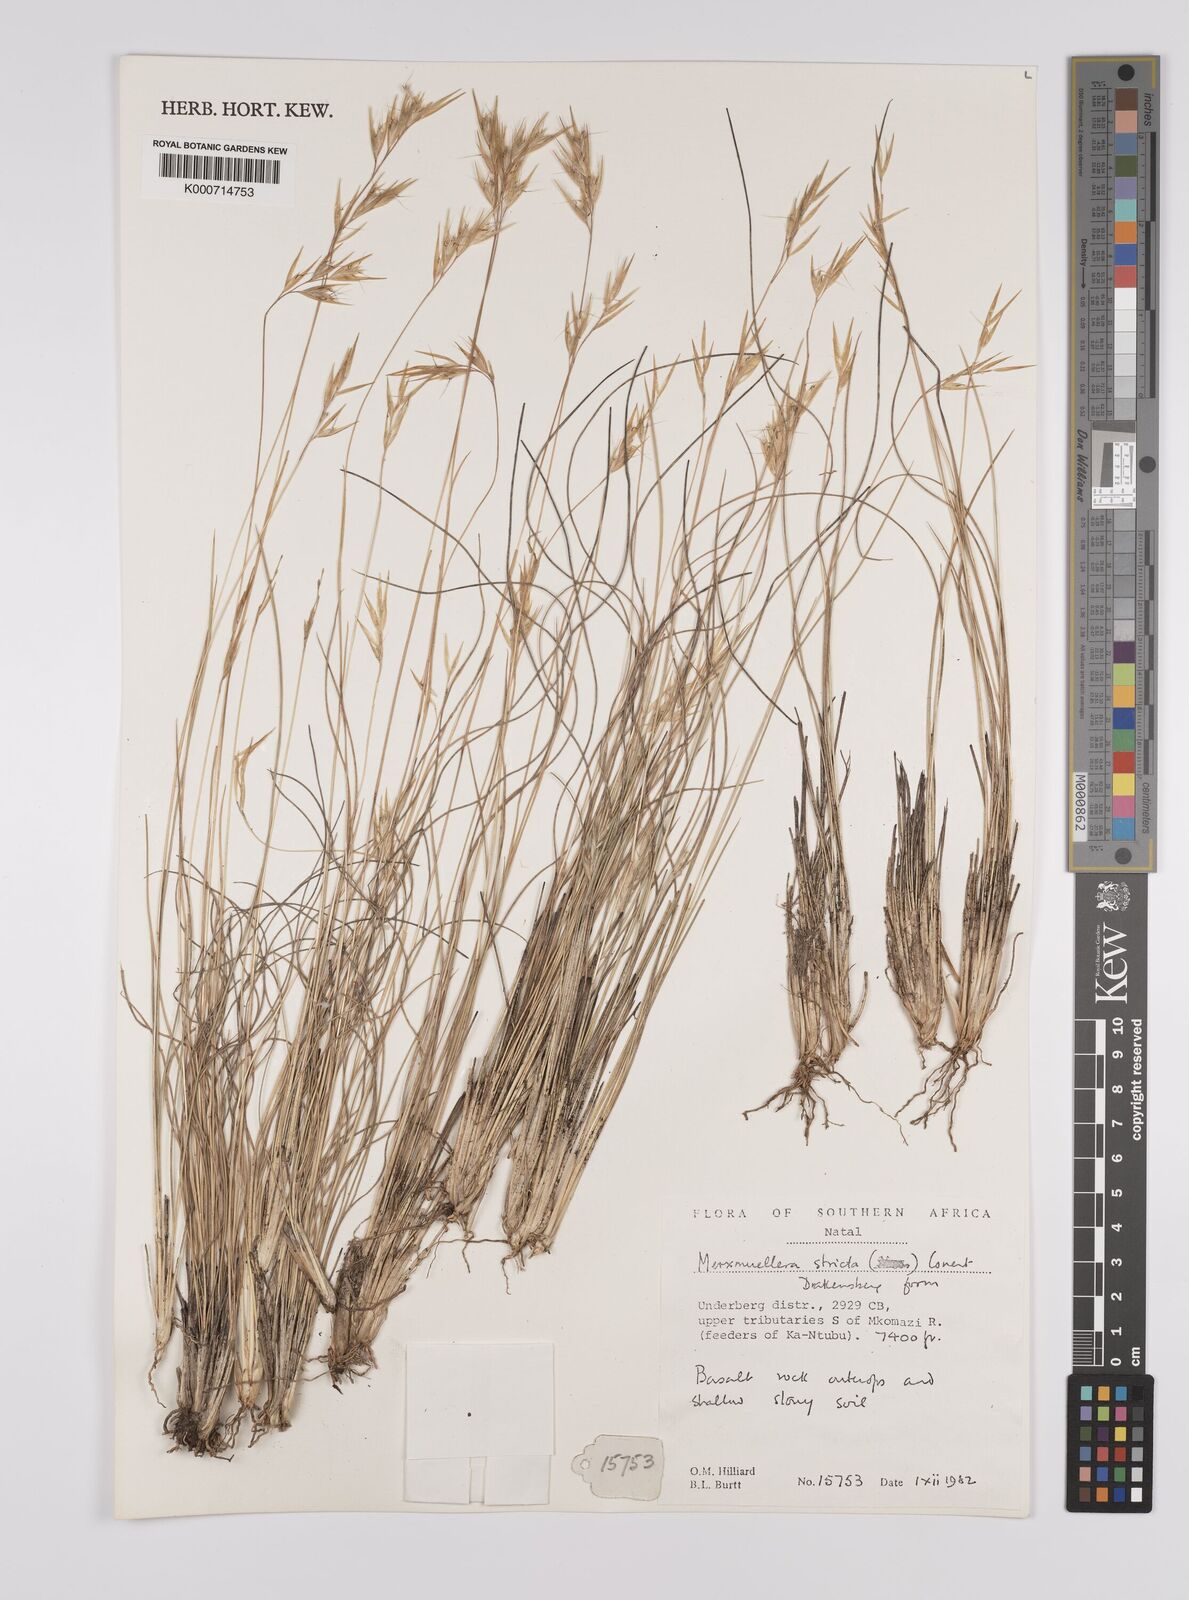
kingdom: Plantae
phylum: Tracheophyta
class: Liliopsida
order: Poales
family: Poaceae
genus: Rytidosperma
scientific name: Rytidosperma
